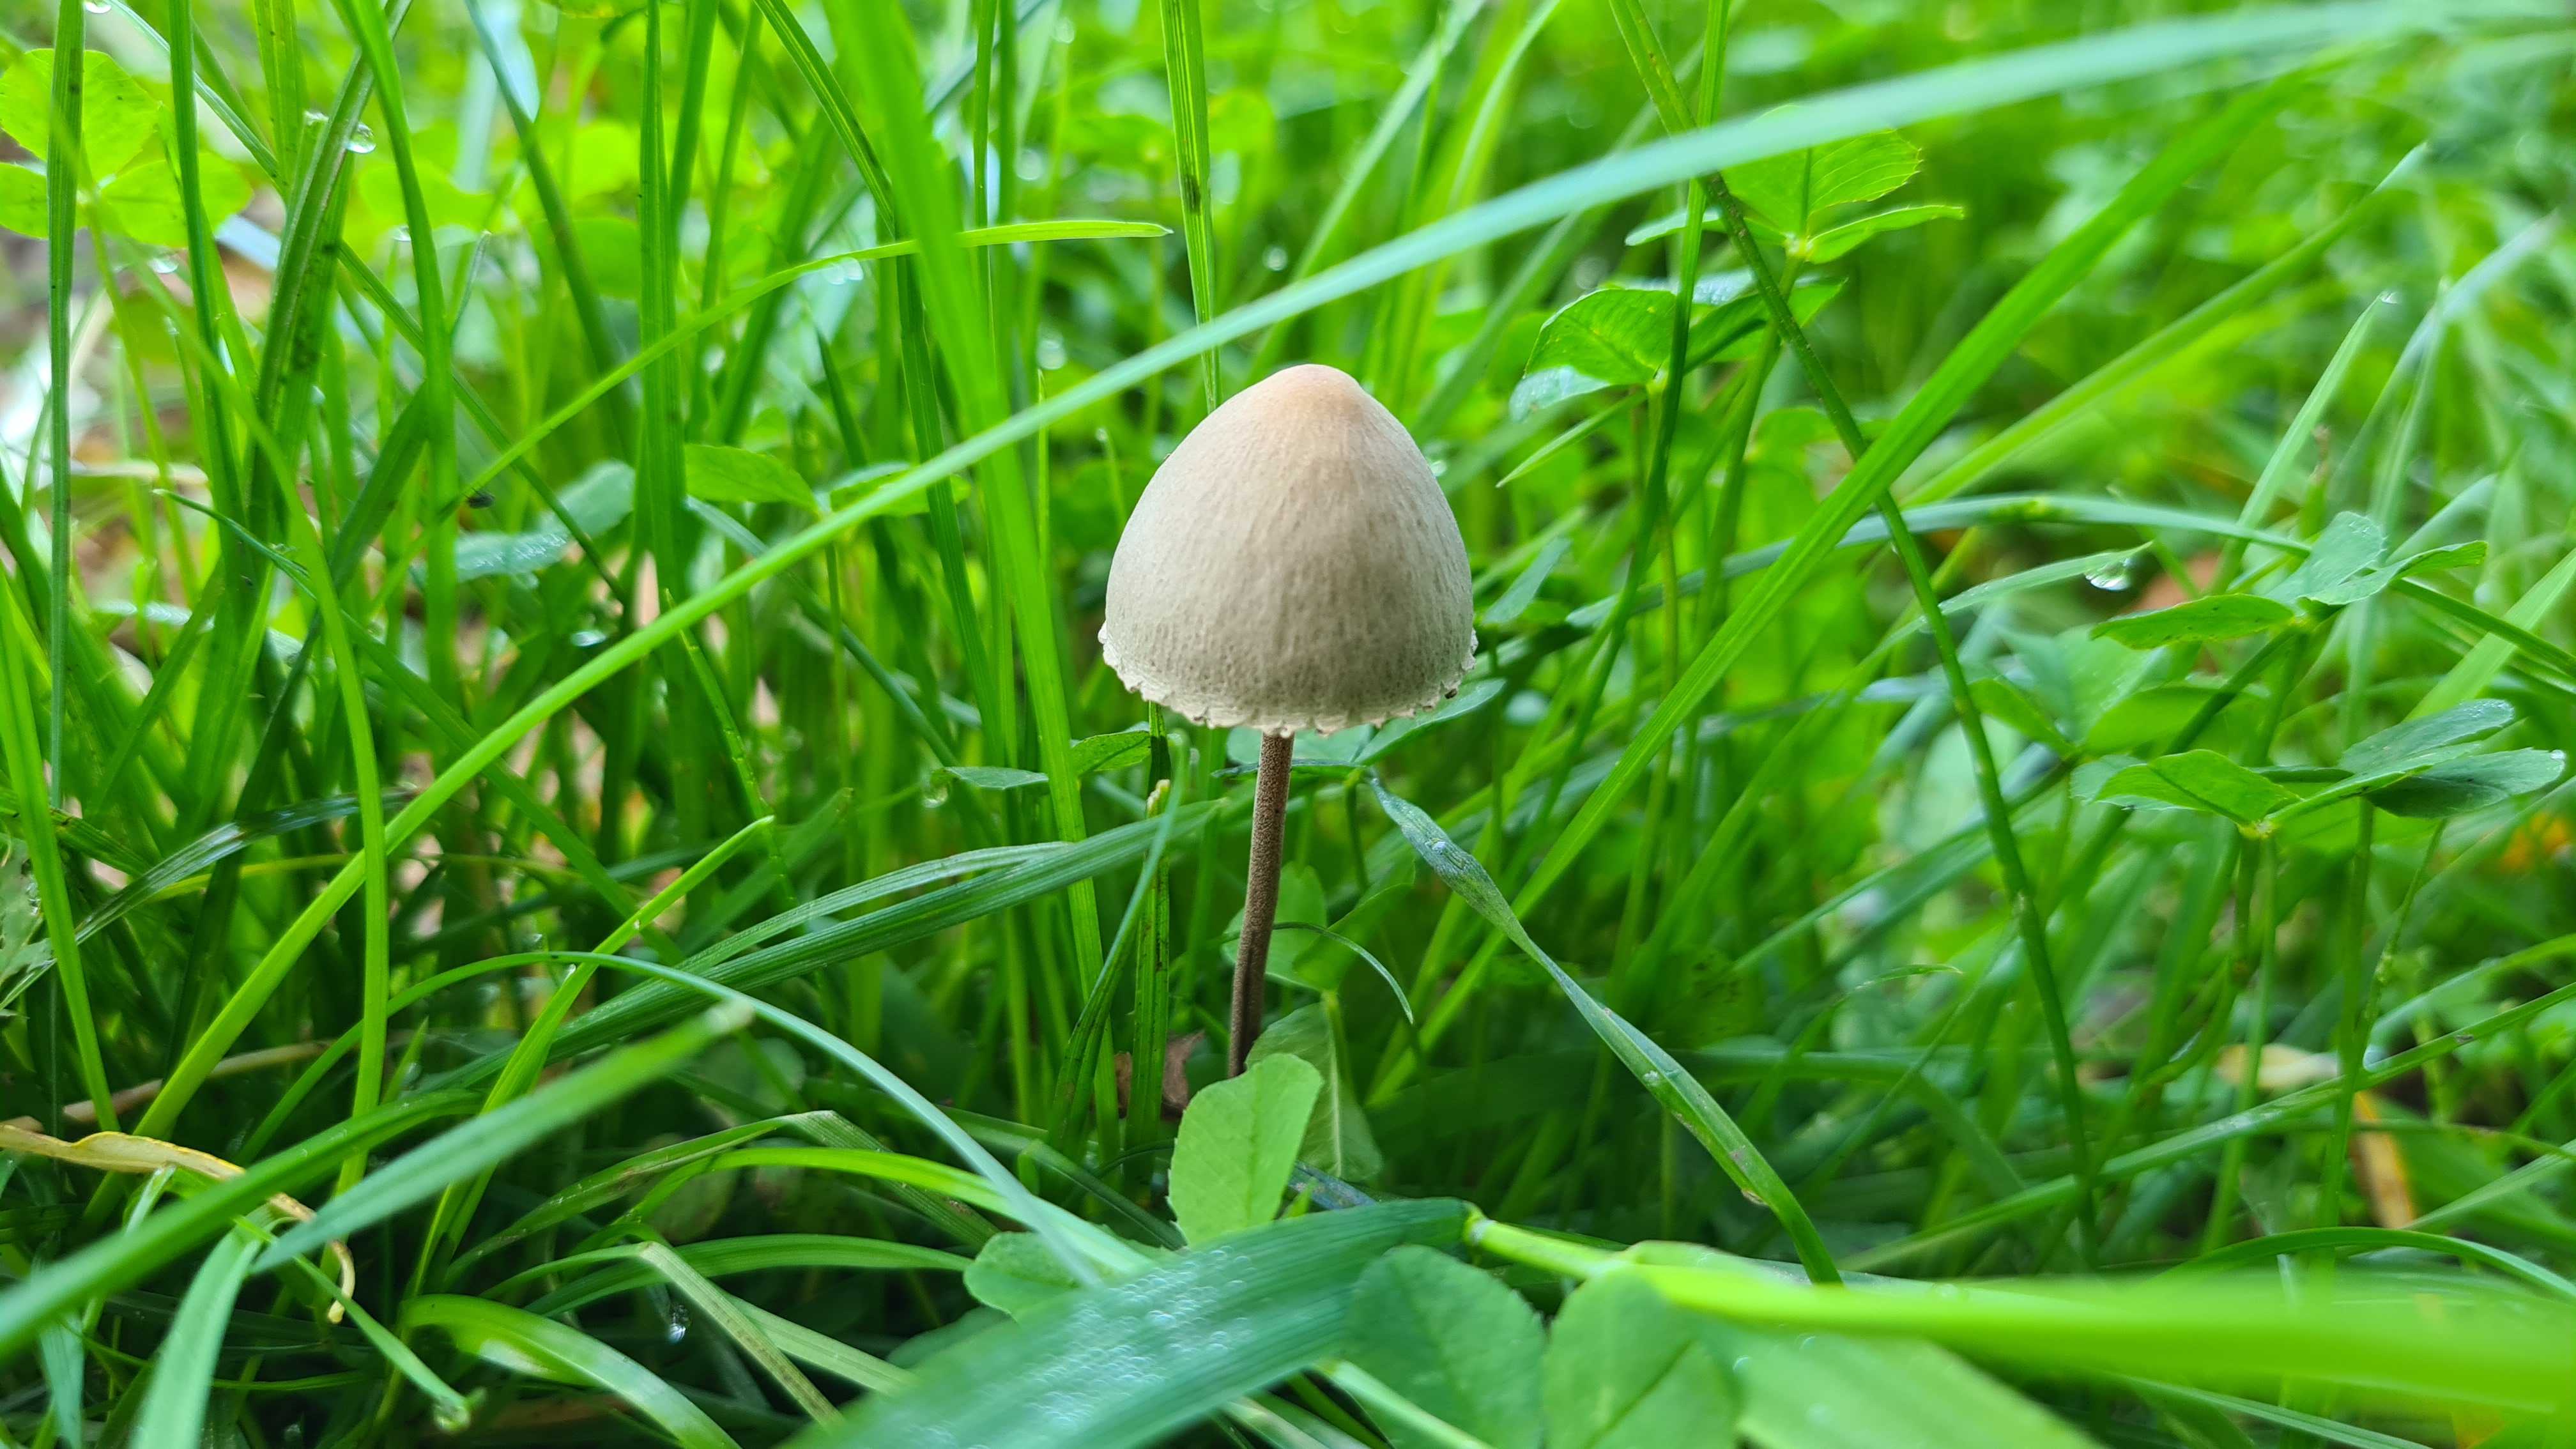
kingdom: Fungi
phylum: Basidiomycota
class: Agaricomycetes
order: Agaricales
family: Bolbitiaceae
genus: Panaeolus
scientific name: Panaeolus papilionaceus
